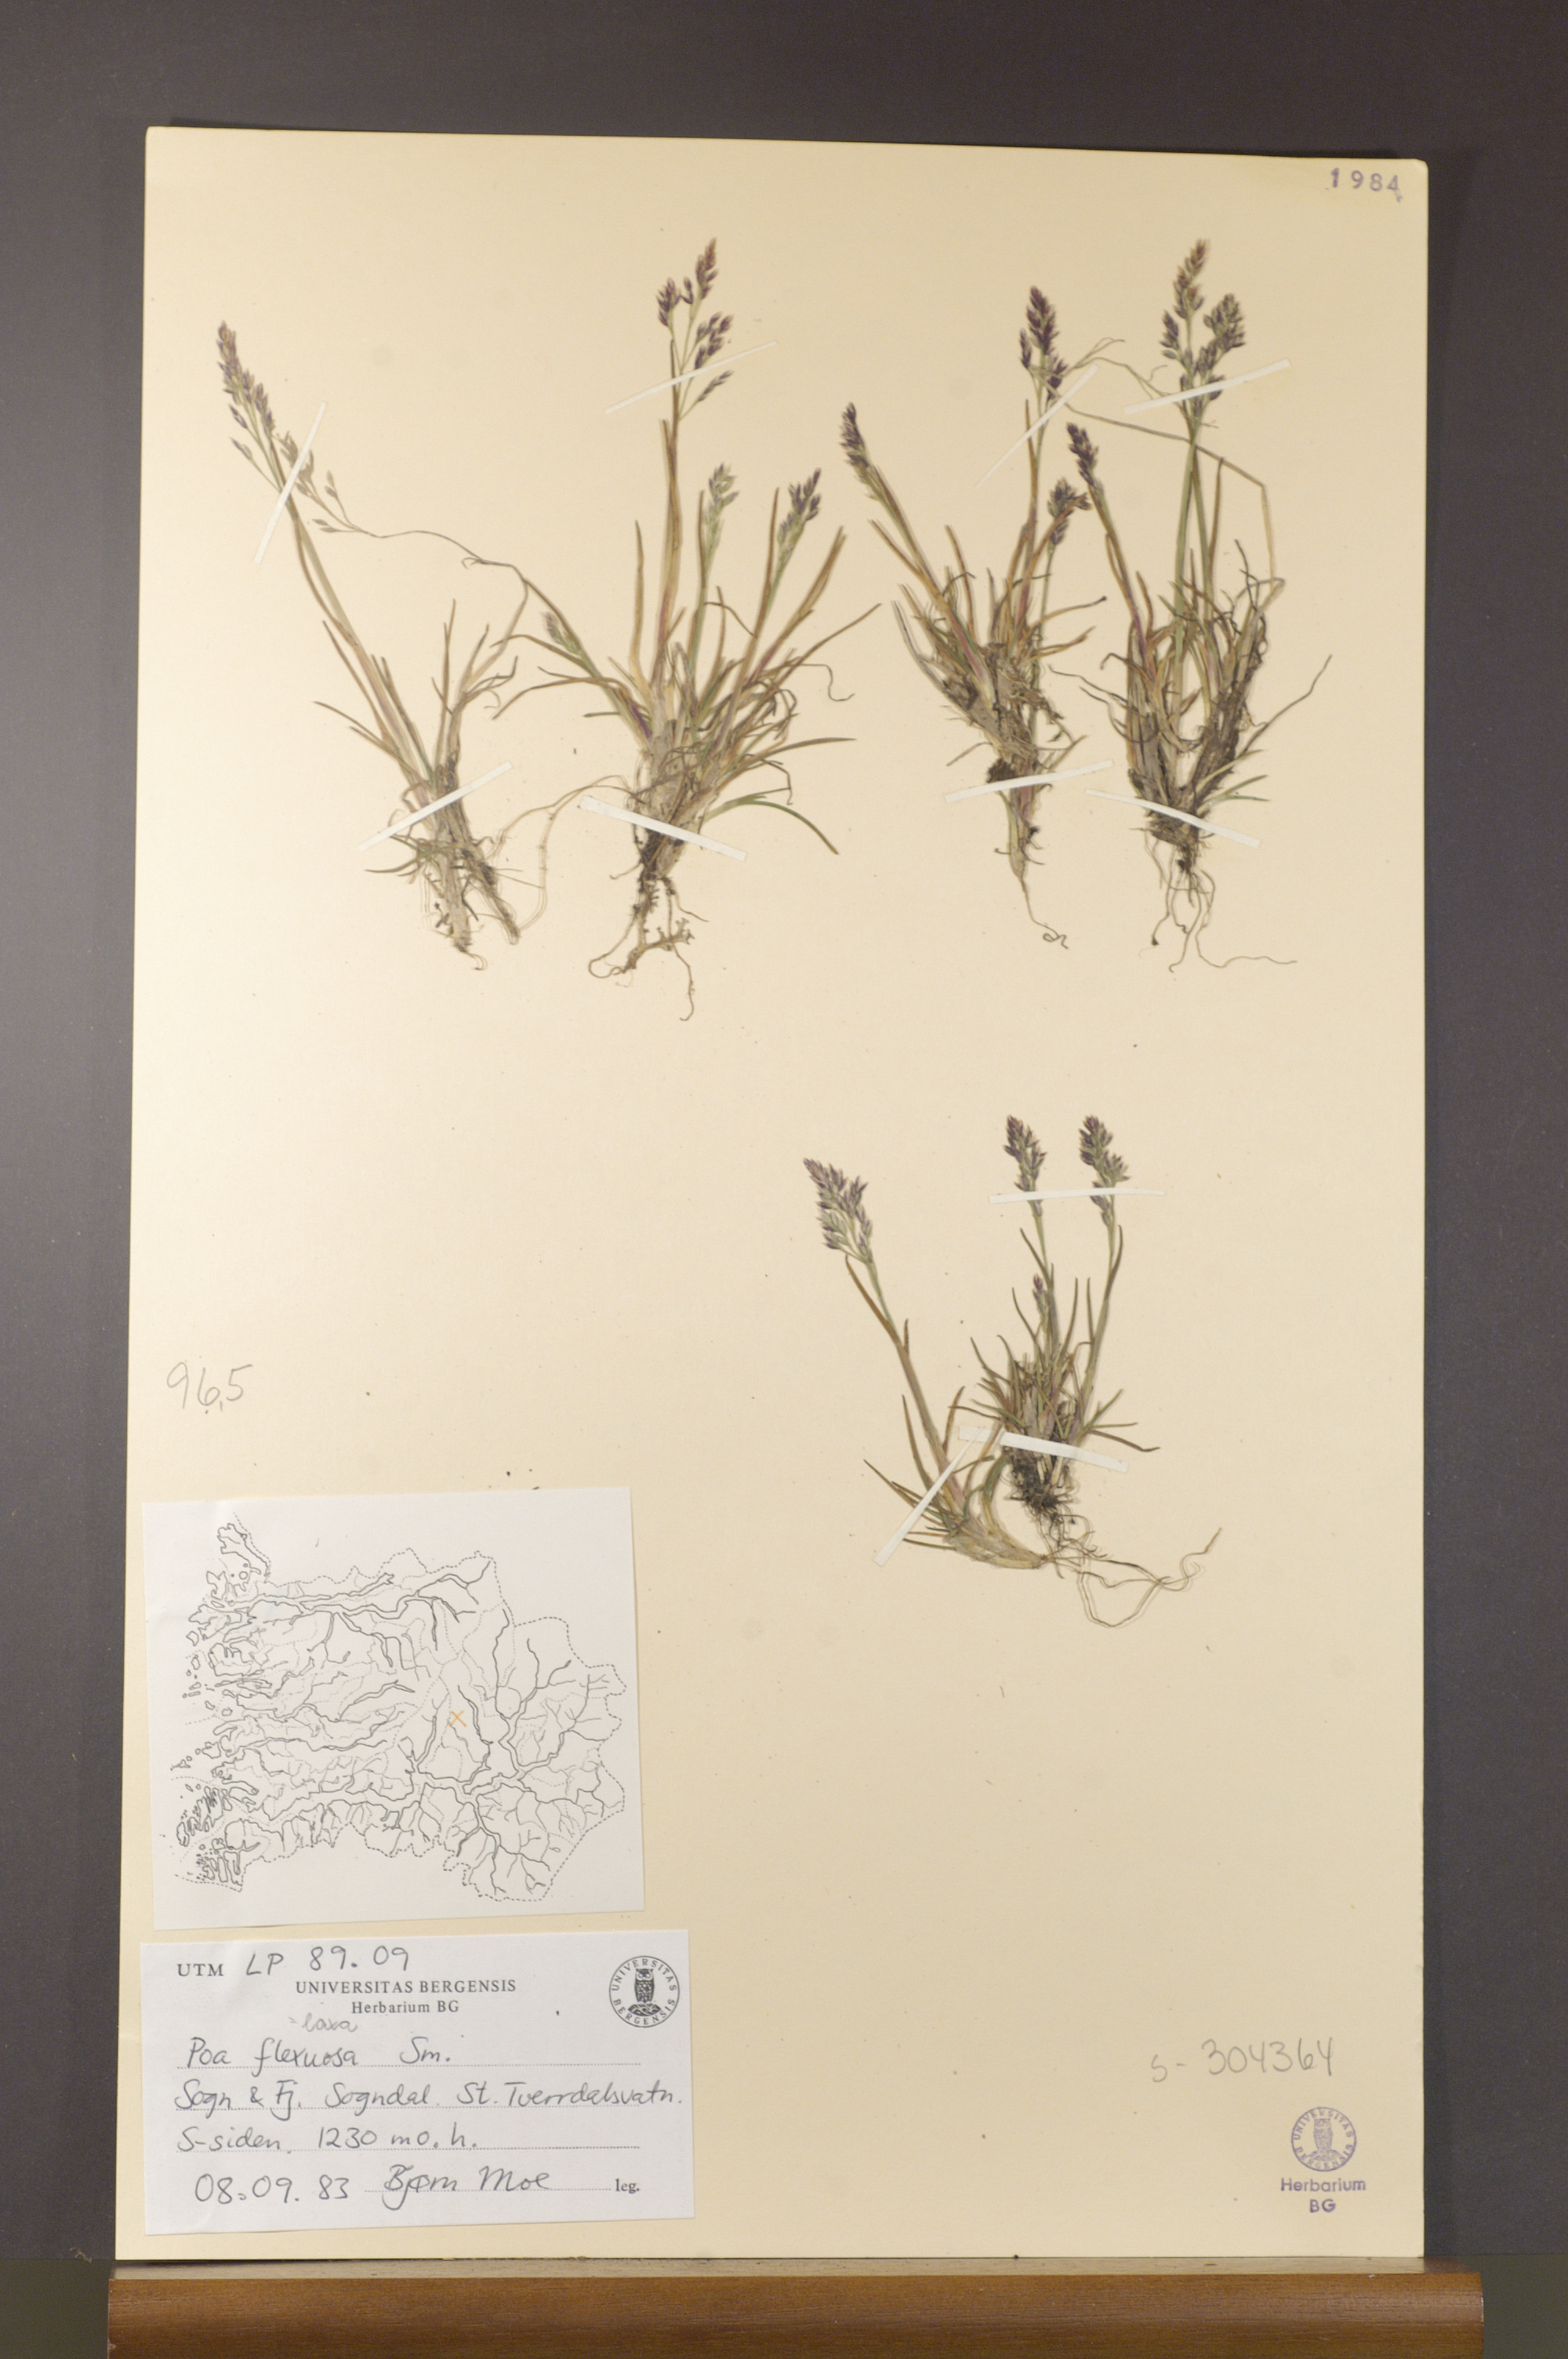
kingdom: Plantae
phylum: Tracheophyta
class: Liliopsida
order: Poales
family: Poaceae
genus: Poa
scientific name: Poa flexuosa
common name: Wavy meadow-grass
